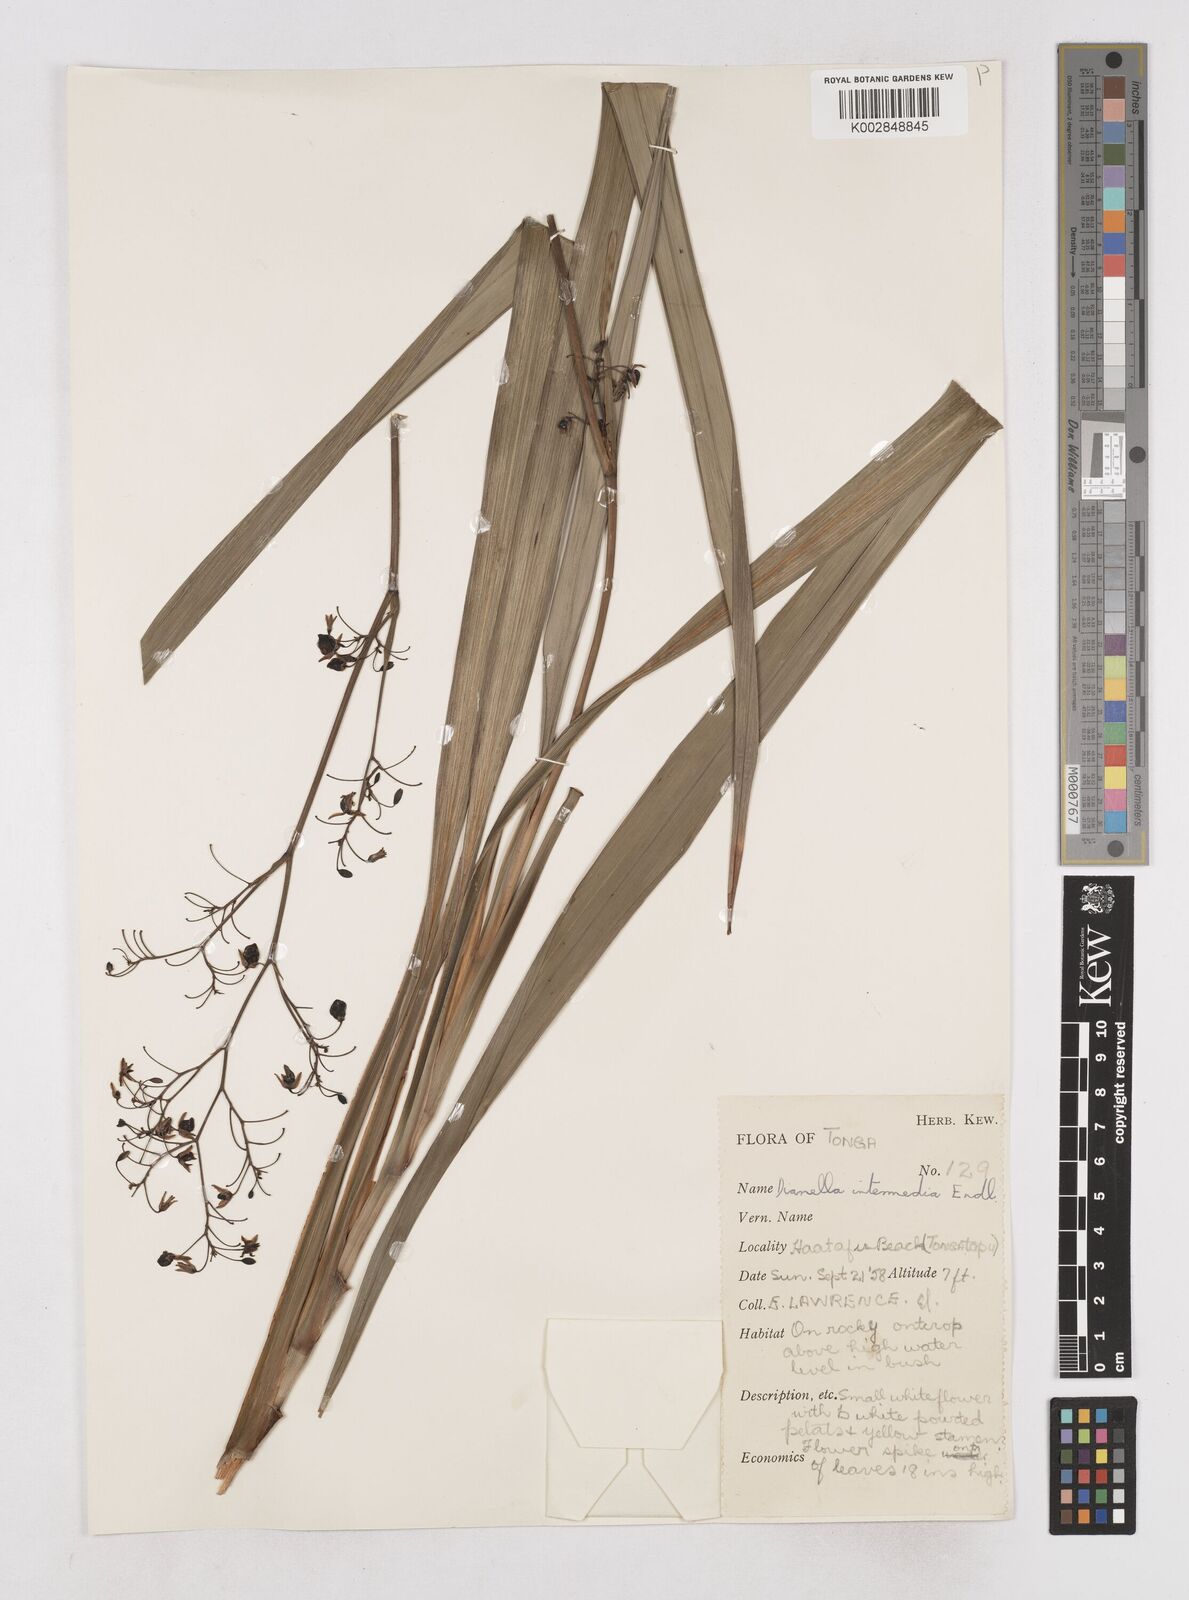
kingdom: Plantae
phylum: Tracheophyta
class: Liliopsida
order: Asparagales
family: Asphodelaceae
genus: Dianella
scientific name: Dianella intermedia
